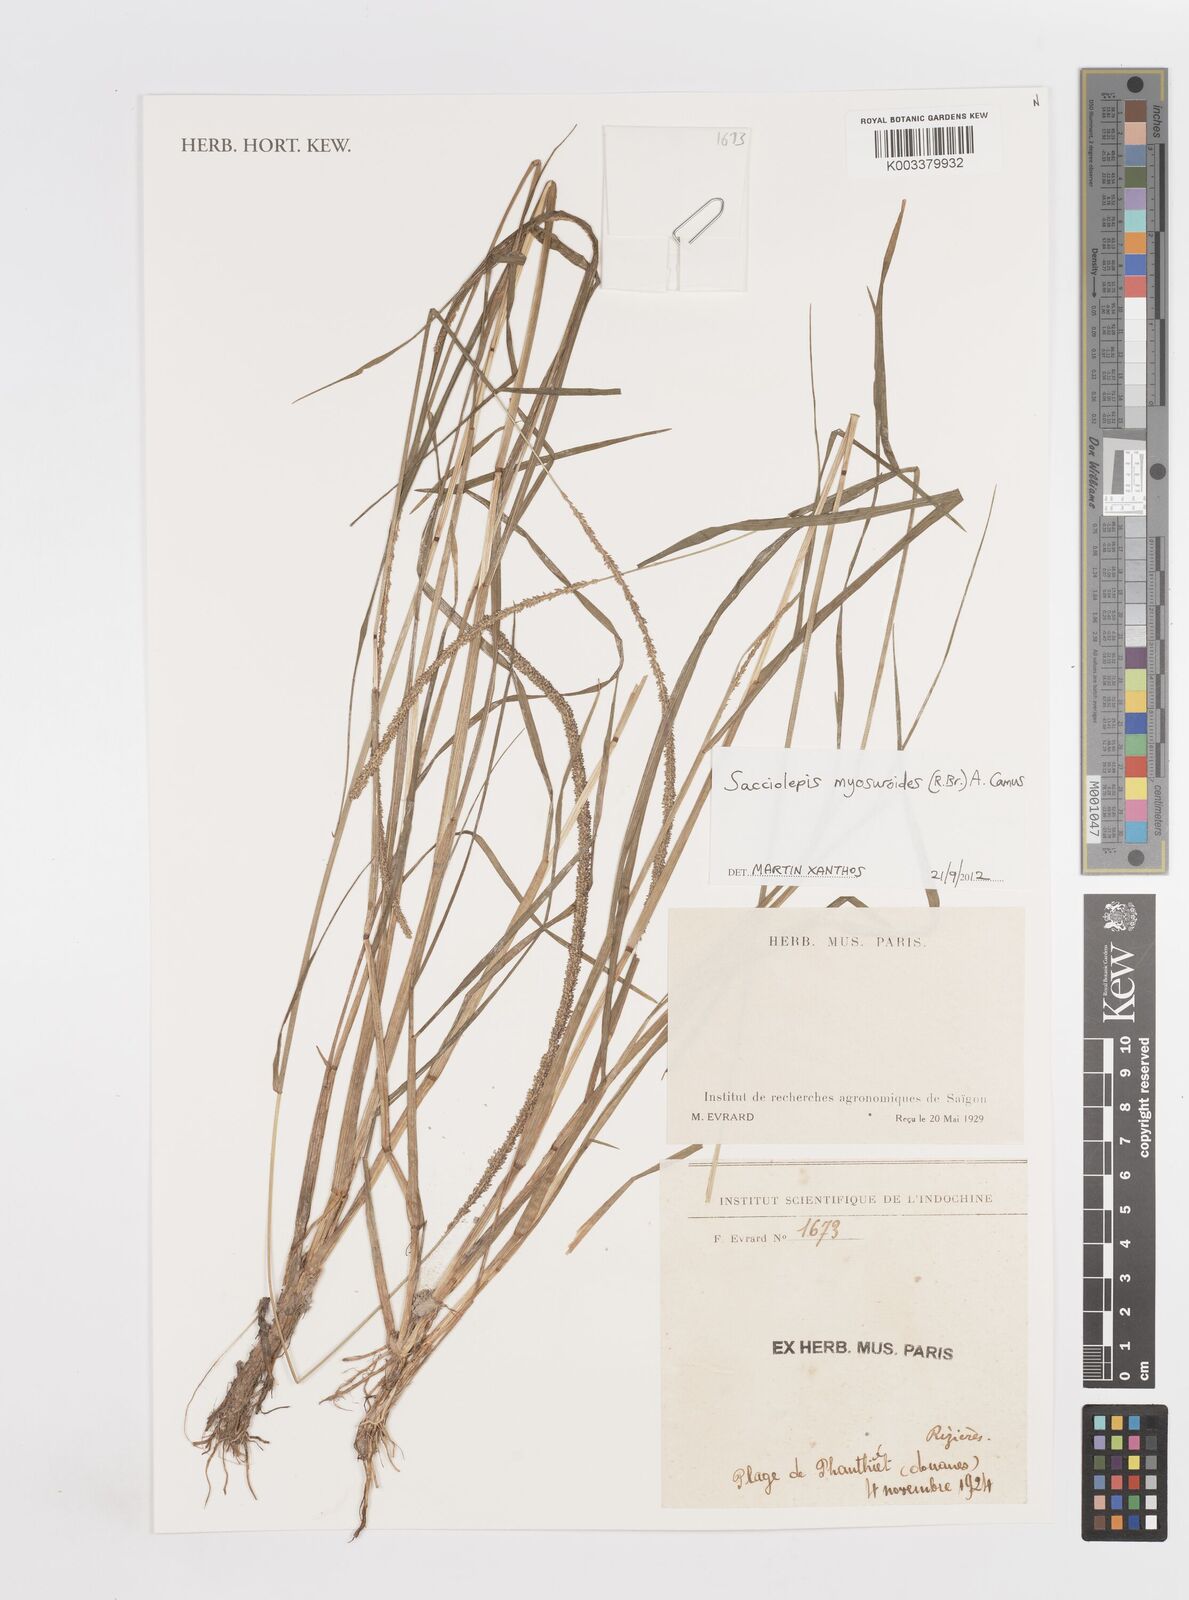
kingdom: Plantae
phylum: Tracheophyta
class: Liliopsida
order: Poales
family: Poaceae
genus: Sacciolepis
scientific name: Sacciolepis myosuroides
